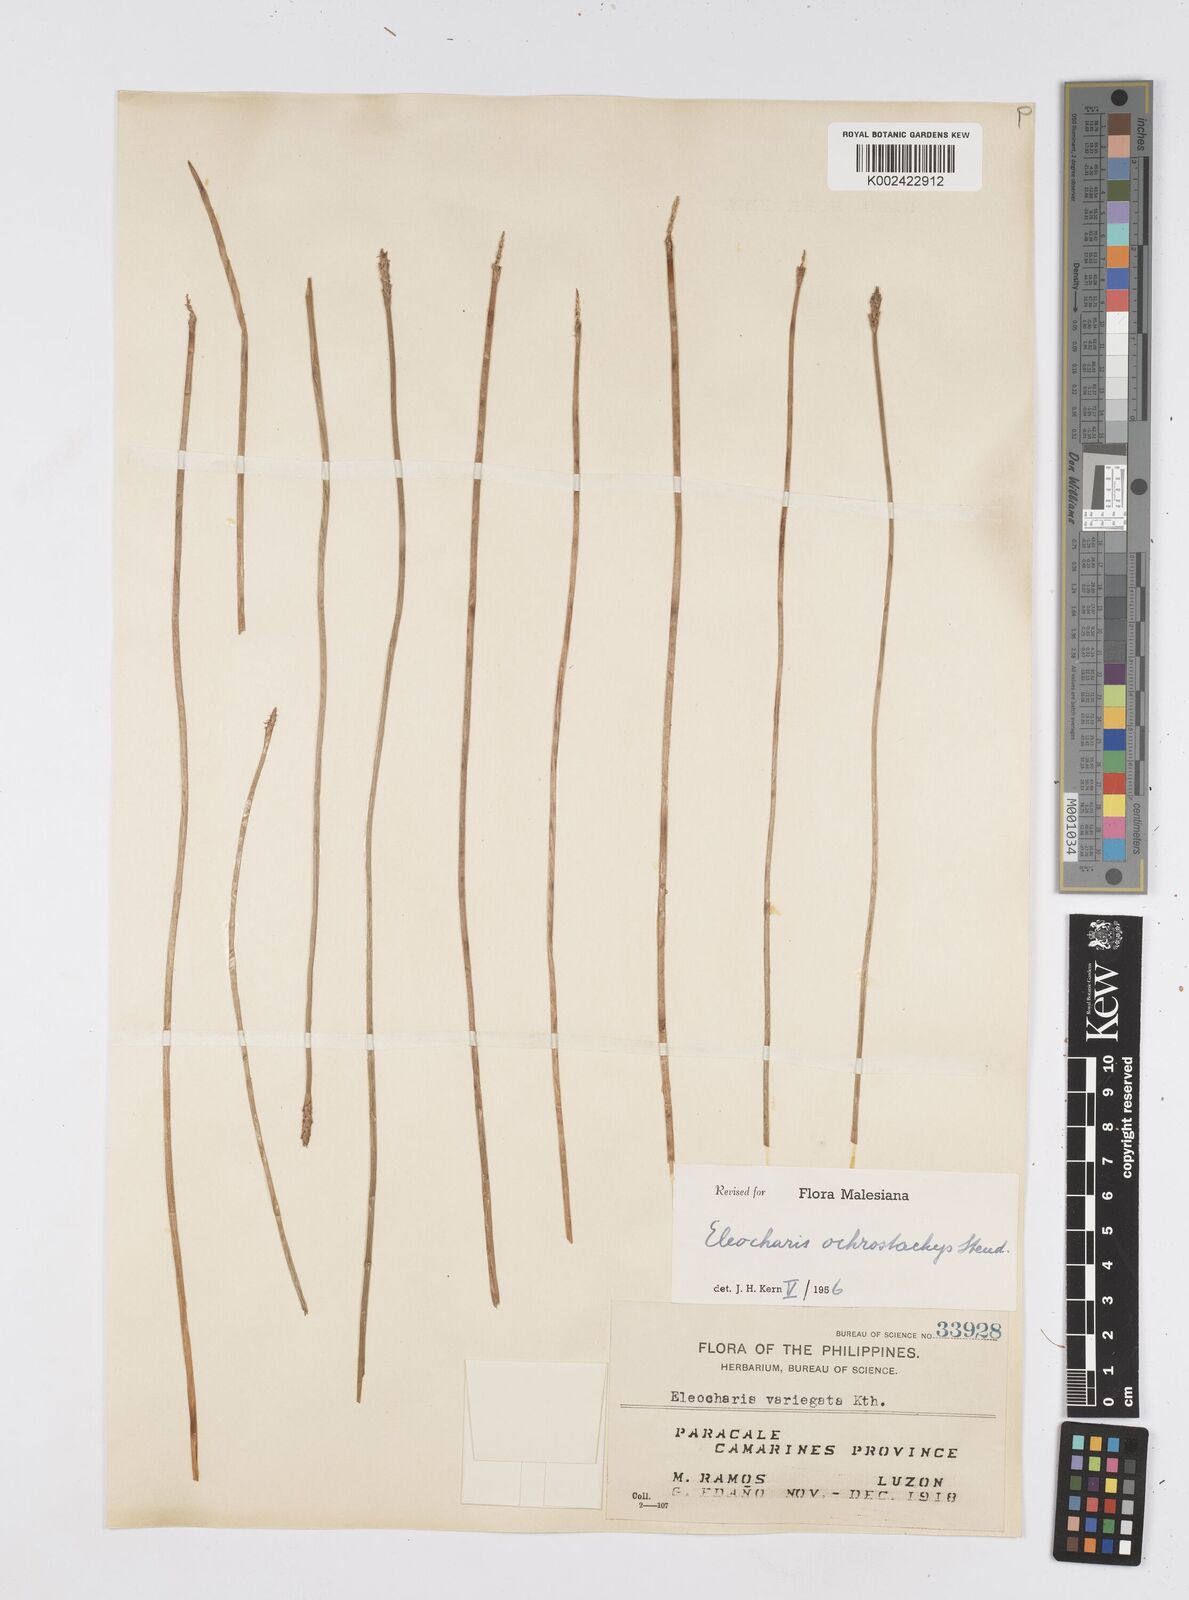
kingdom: Plantae
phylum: Tracheophyta
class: Liliopsida
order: Poales
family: Cyperaceae
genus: Eleocharis
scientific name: Eleocharis ochrostachys
